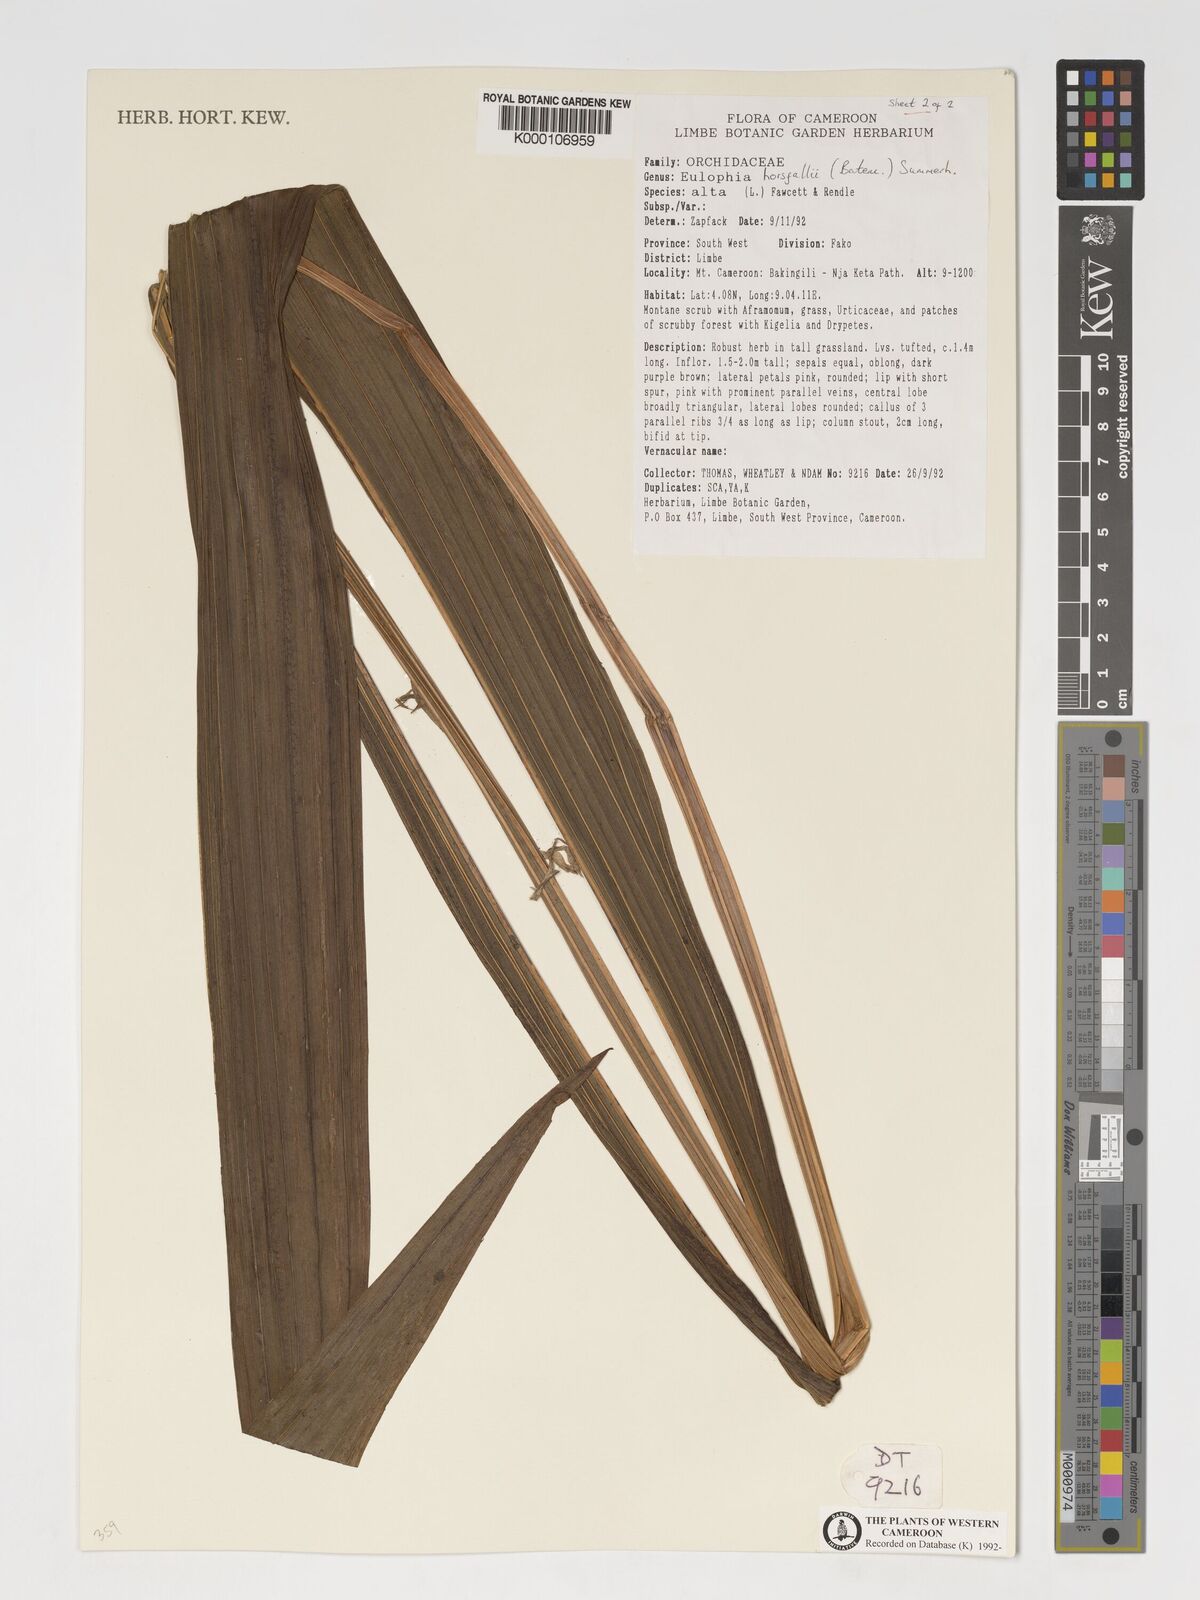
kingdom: Plantae
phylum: Tracheophyta
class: Liliopsida
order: Asparagales
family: Orchidaceae
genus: Eulophia
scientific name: Eulophia horsfallii
